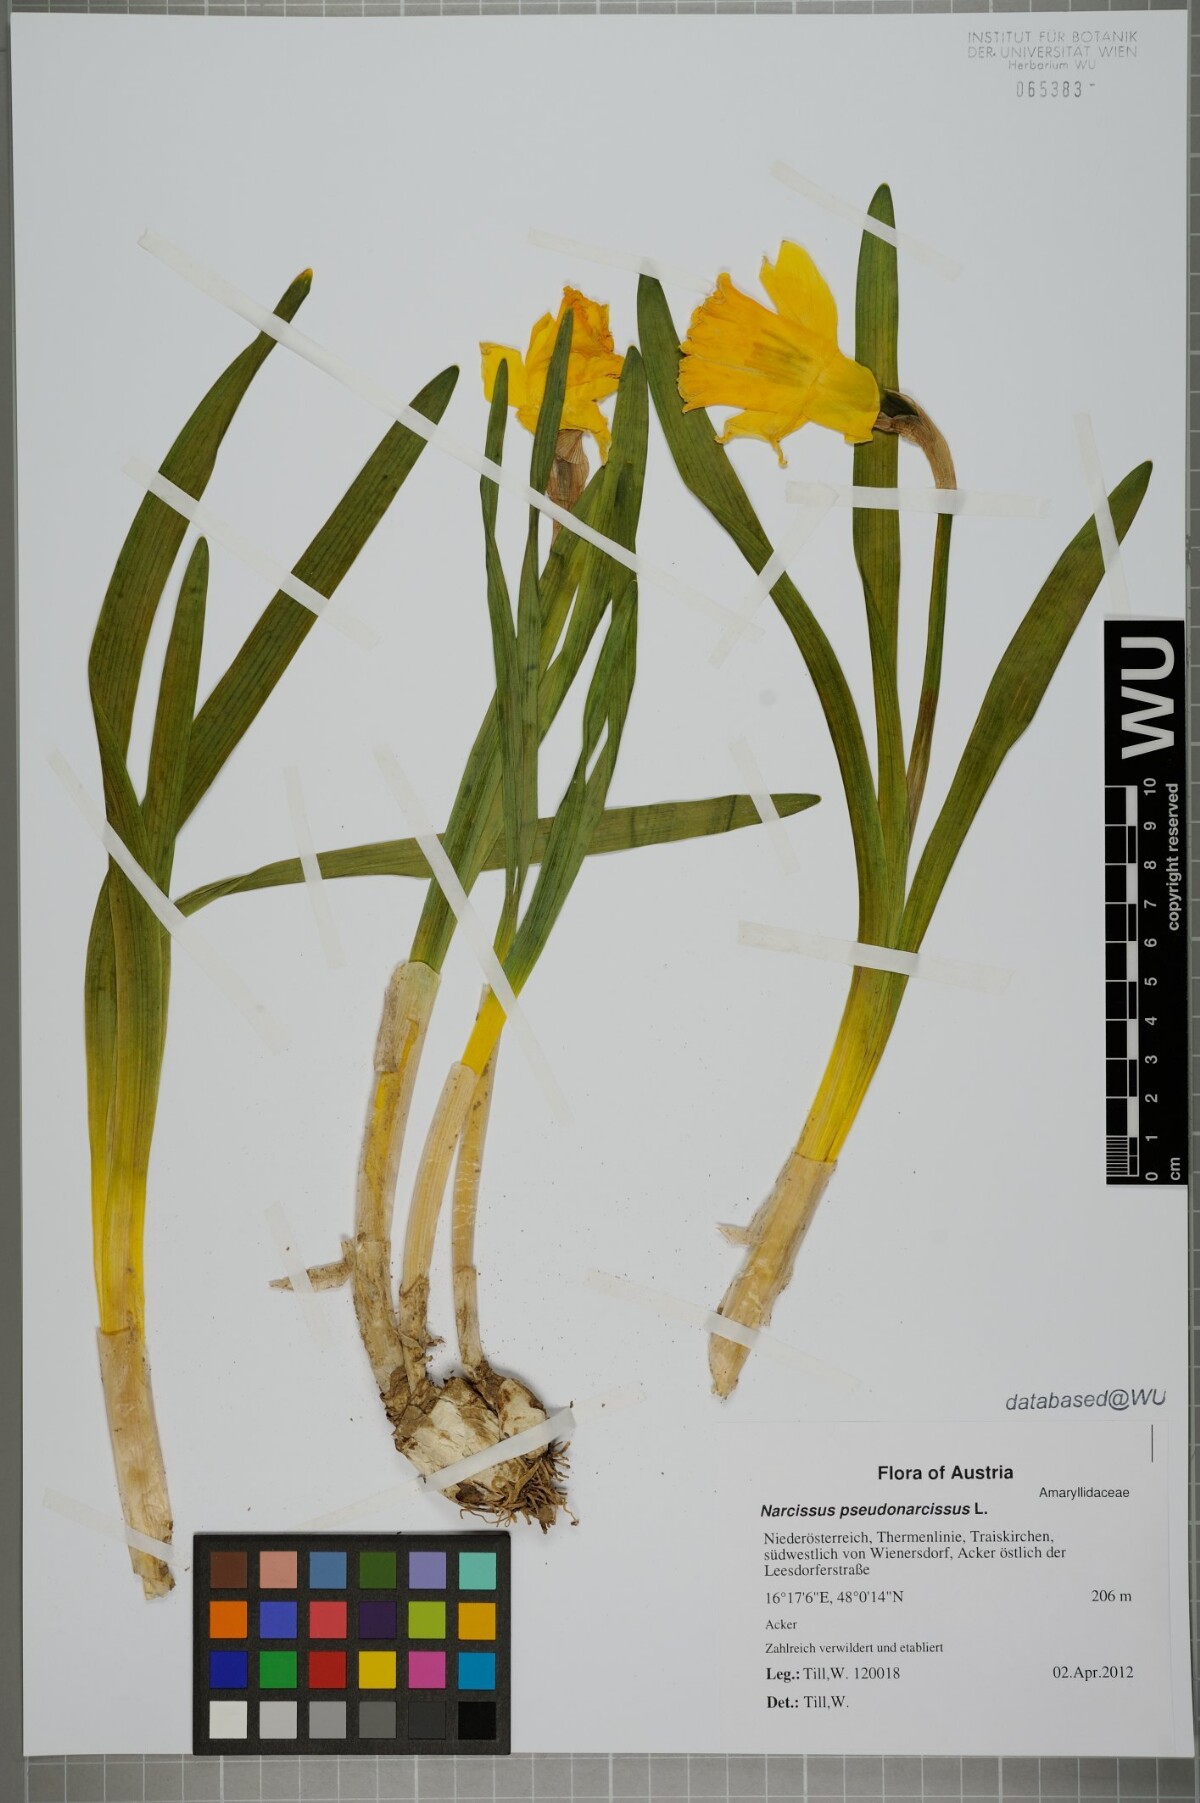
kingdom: Plantae
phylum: Tracheophyta
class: Liliopsida
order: Asparagales
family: Amaryllidaceae
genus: Narcissus
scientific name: Narcissus pseudonarcissus
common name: Daffodil
